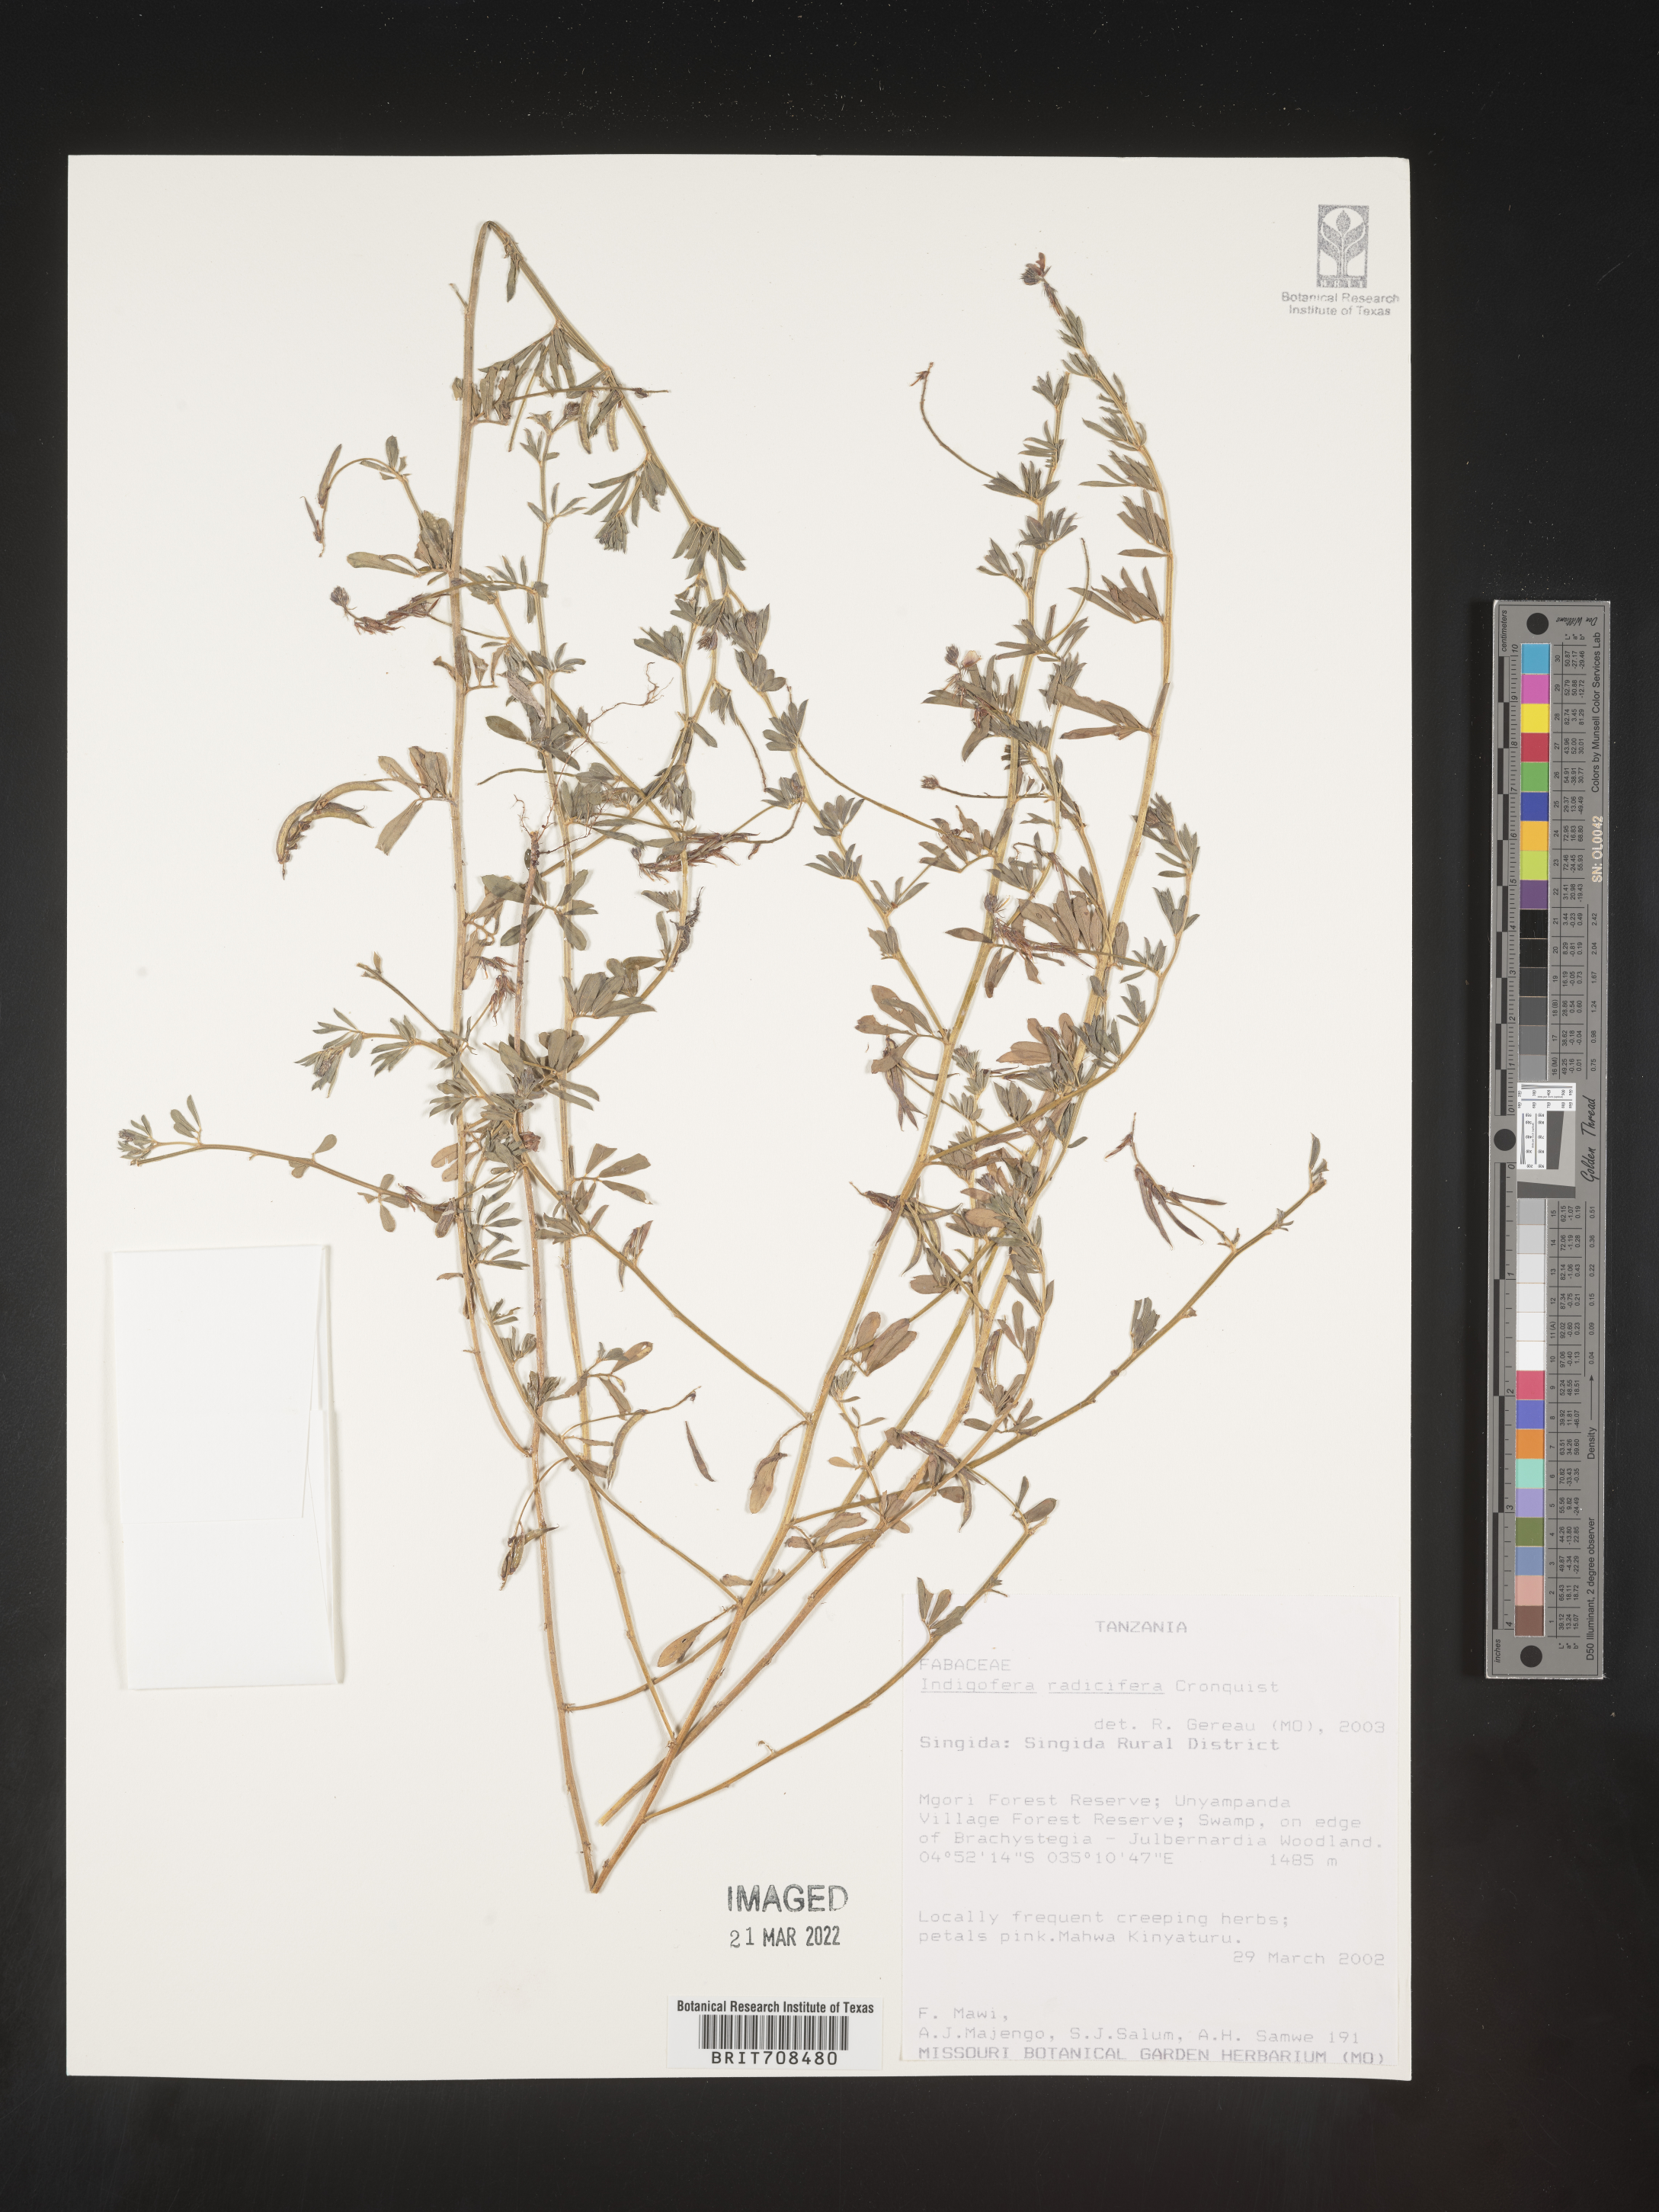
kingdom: Plantae
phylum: Tracheophyta
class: Magnoliopsida
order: Fabales
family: Fabaceae
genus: Indigofera
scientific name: Indigofera
